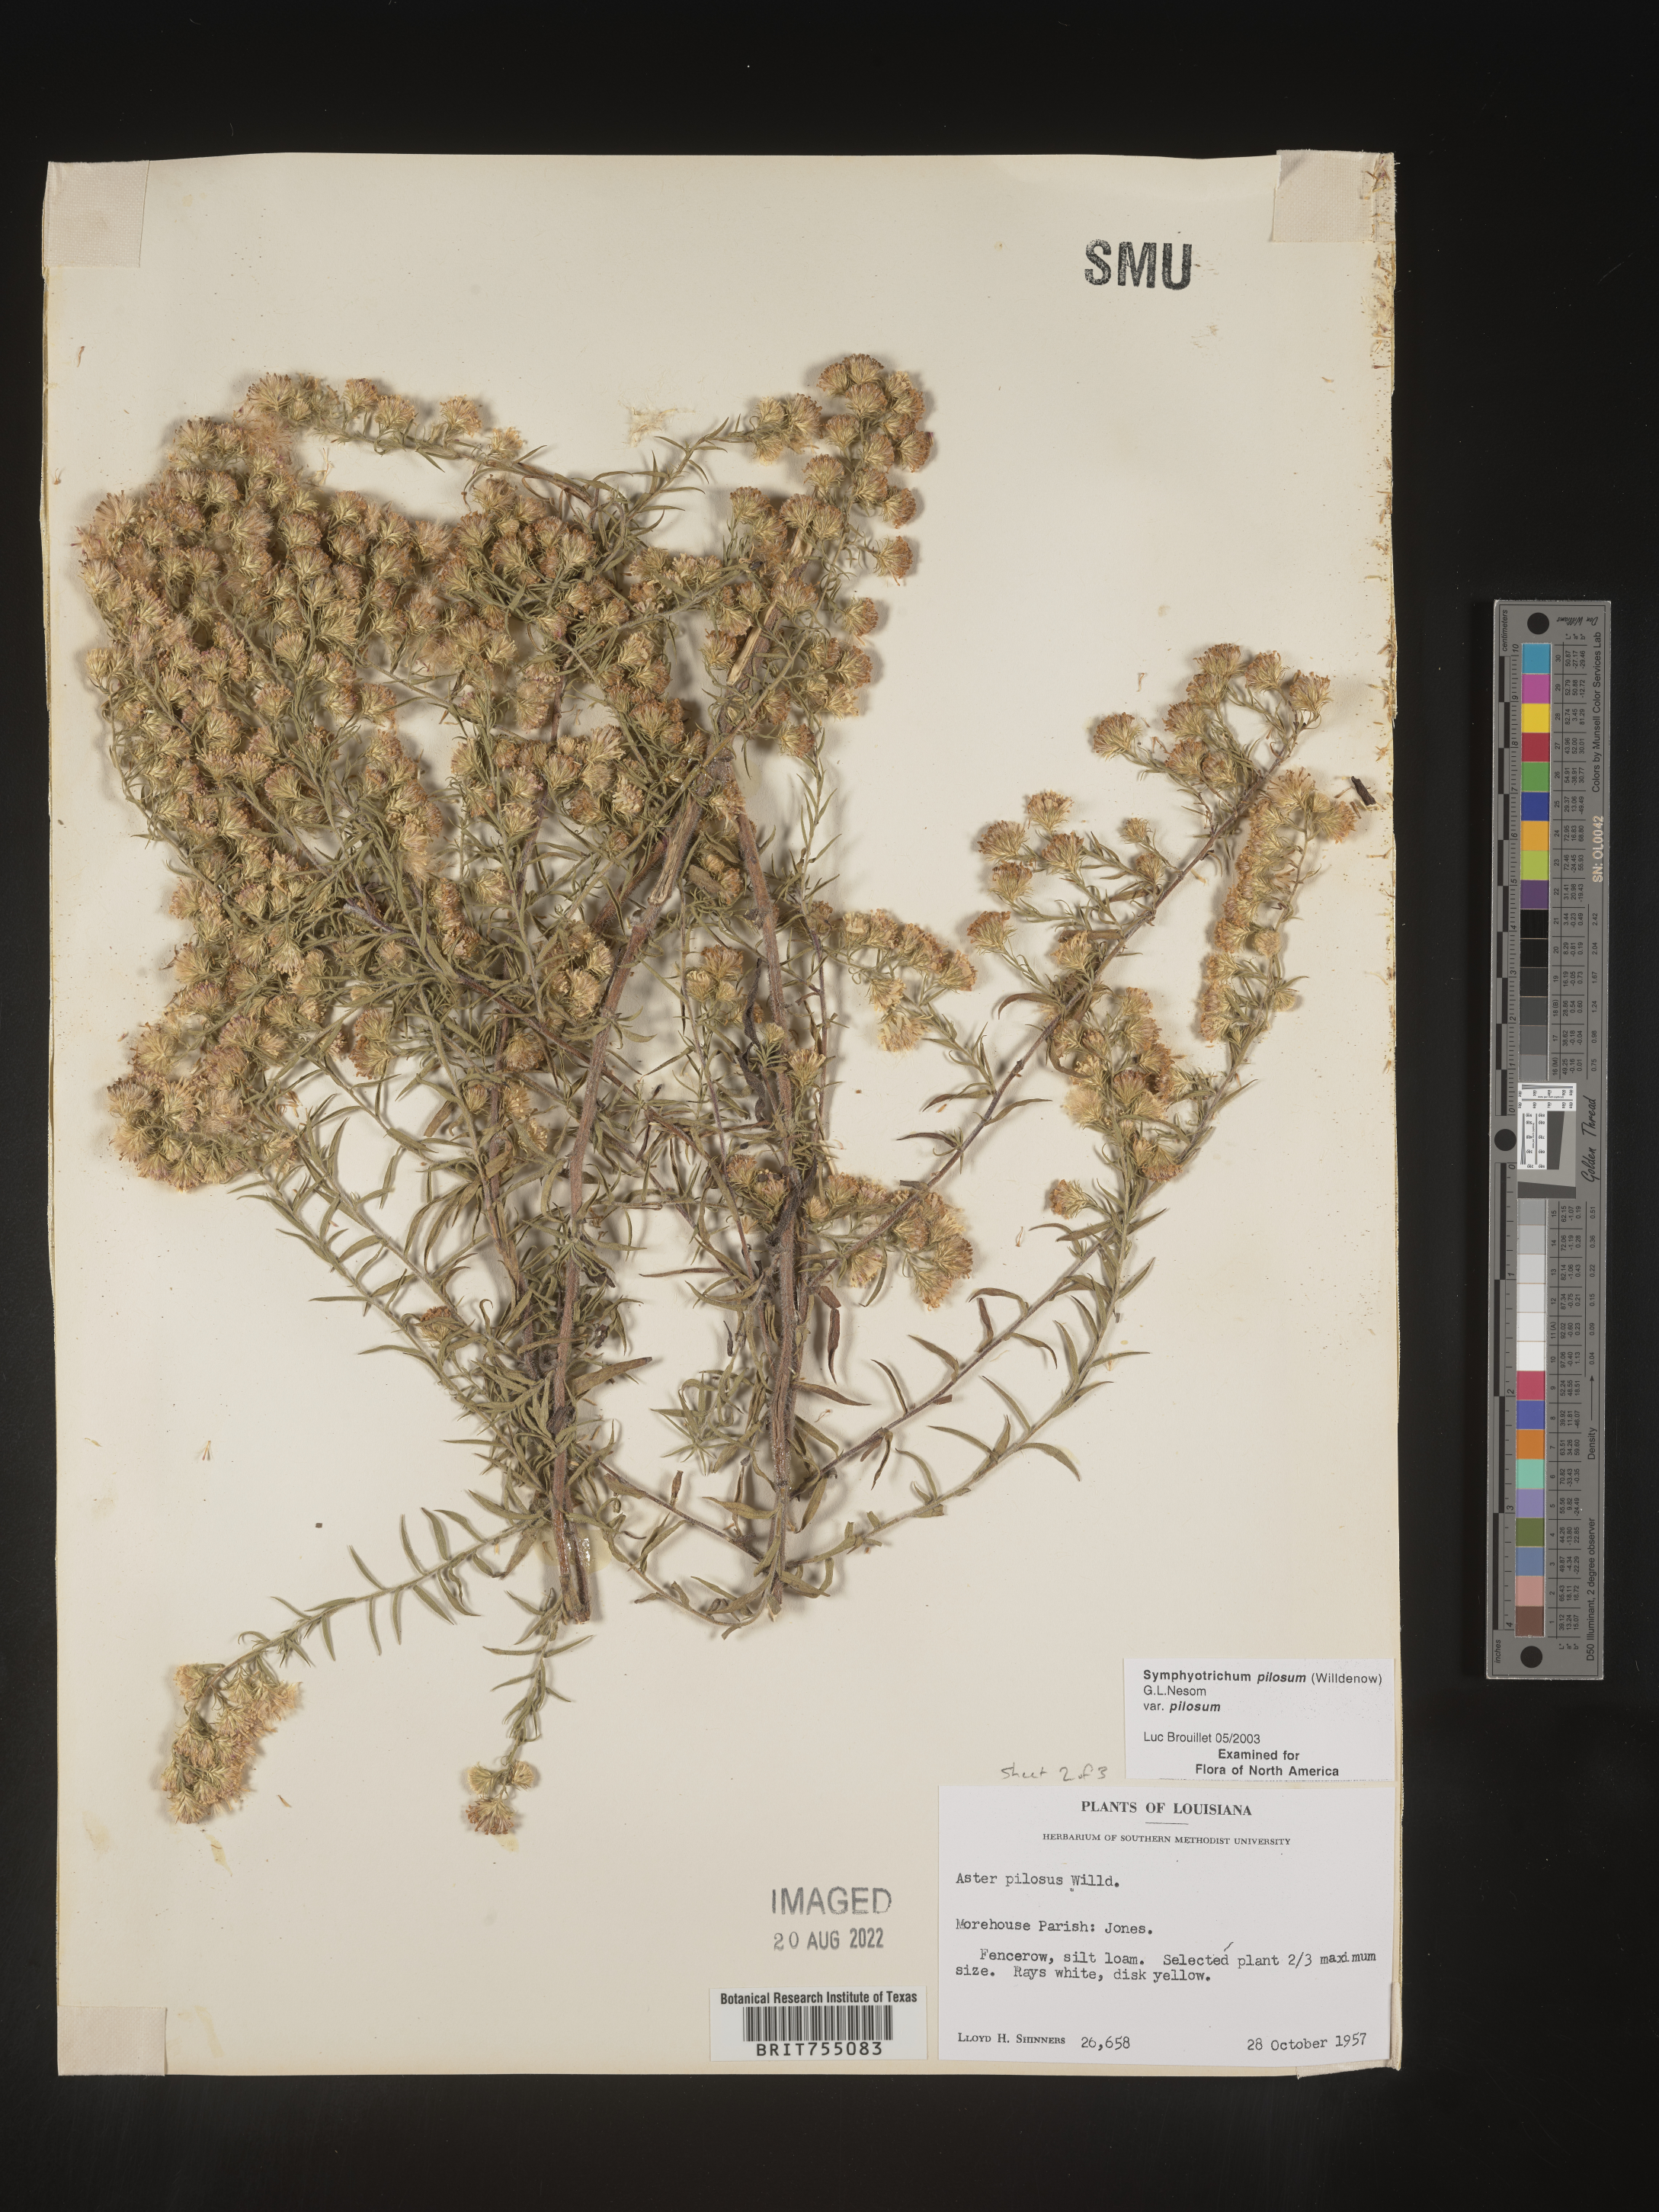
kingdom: Plantae
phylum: Tracheophyta
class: Magnoliopsida
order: Asterales
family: Asteraceae
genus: Symphyotrichum
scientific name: Symphyotrichum pilosum
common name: Awl aster
